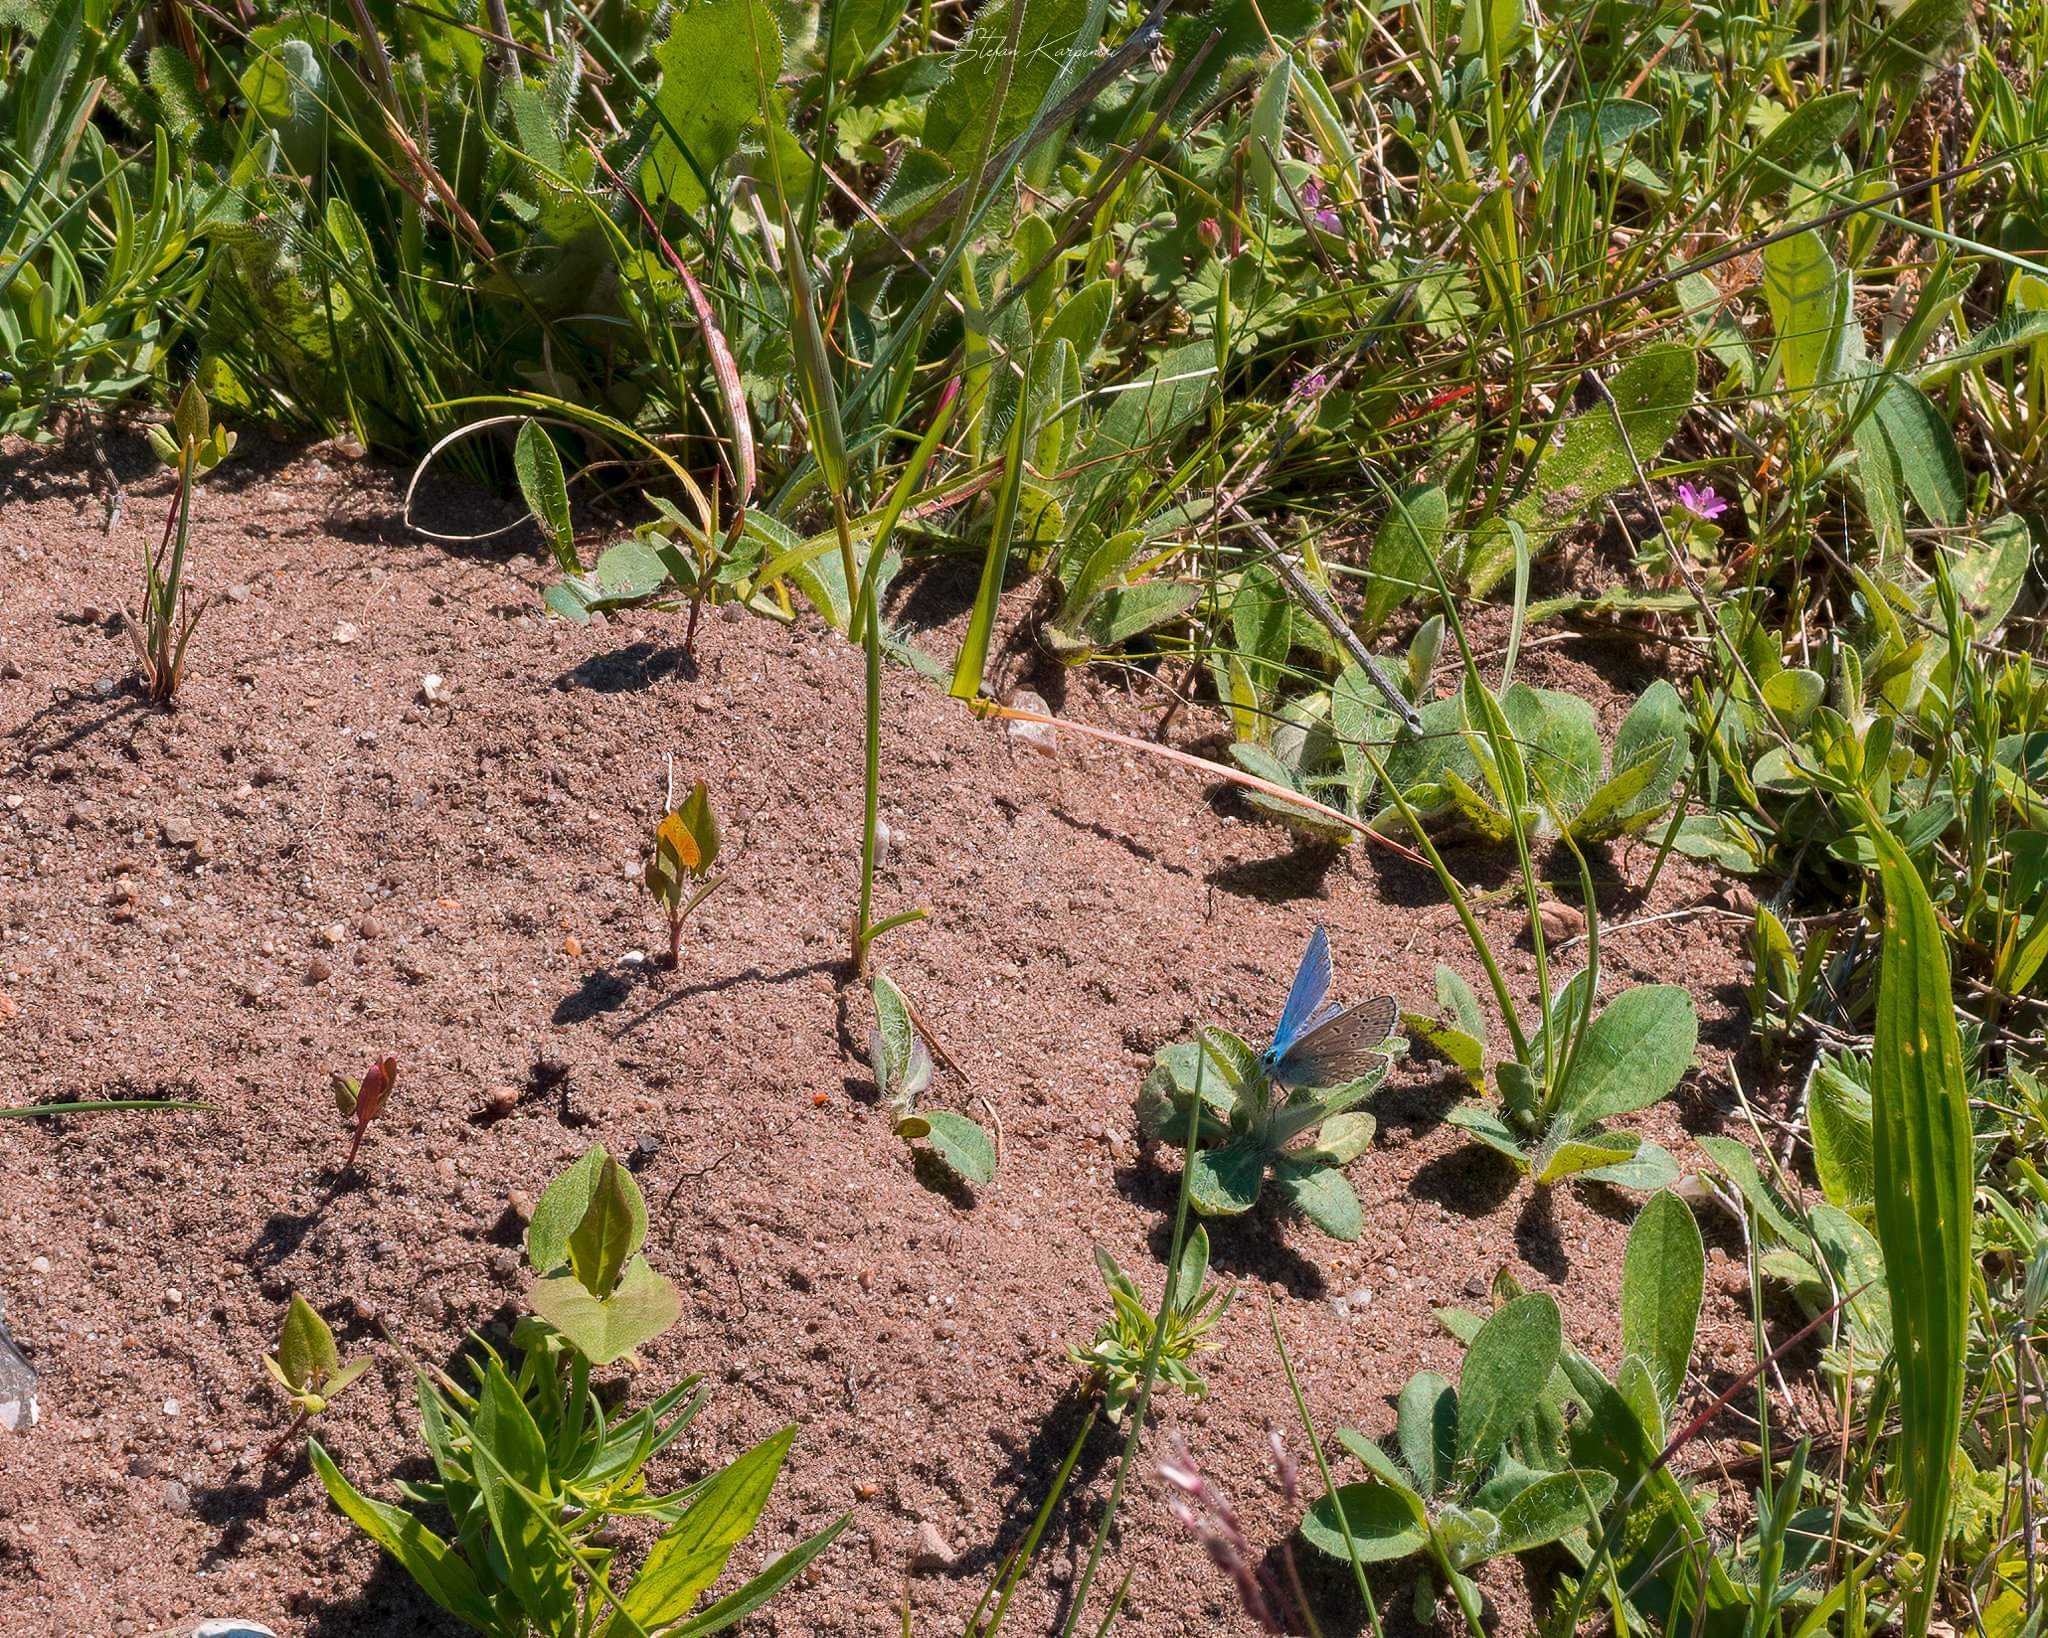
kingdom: Animalia
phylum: Arthropoda
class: Insecta
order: Lepidoptera
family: Lycaenidae
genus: Polyommatus
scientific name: Polyommatus icarus
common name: Almindelig blåfugl
